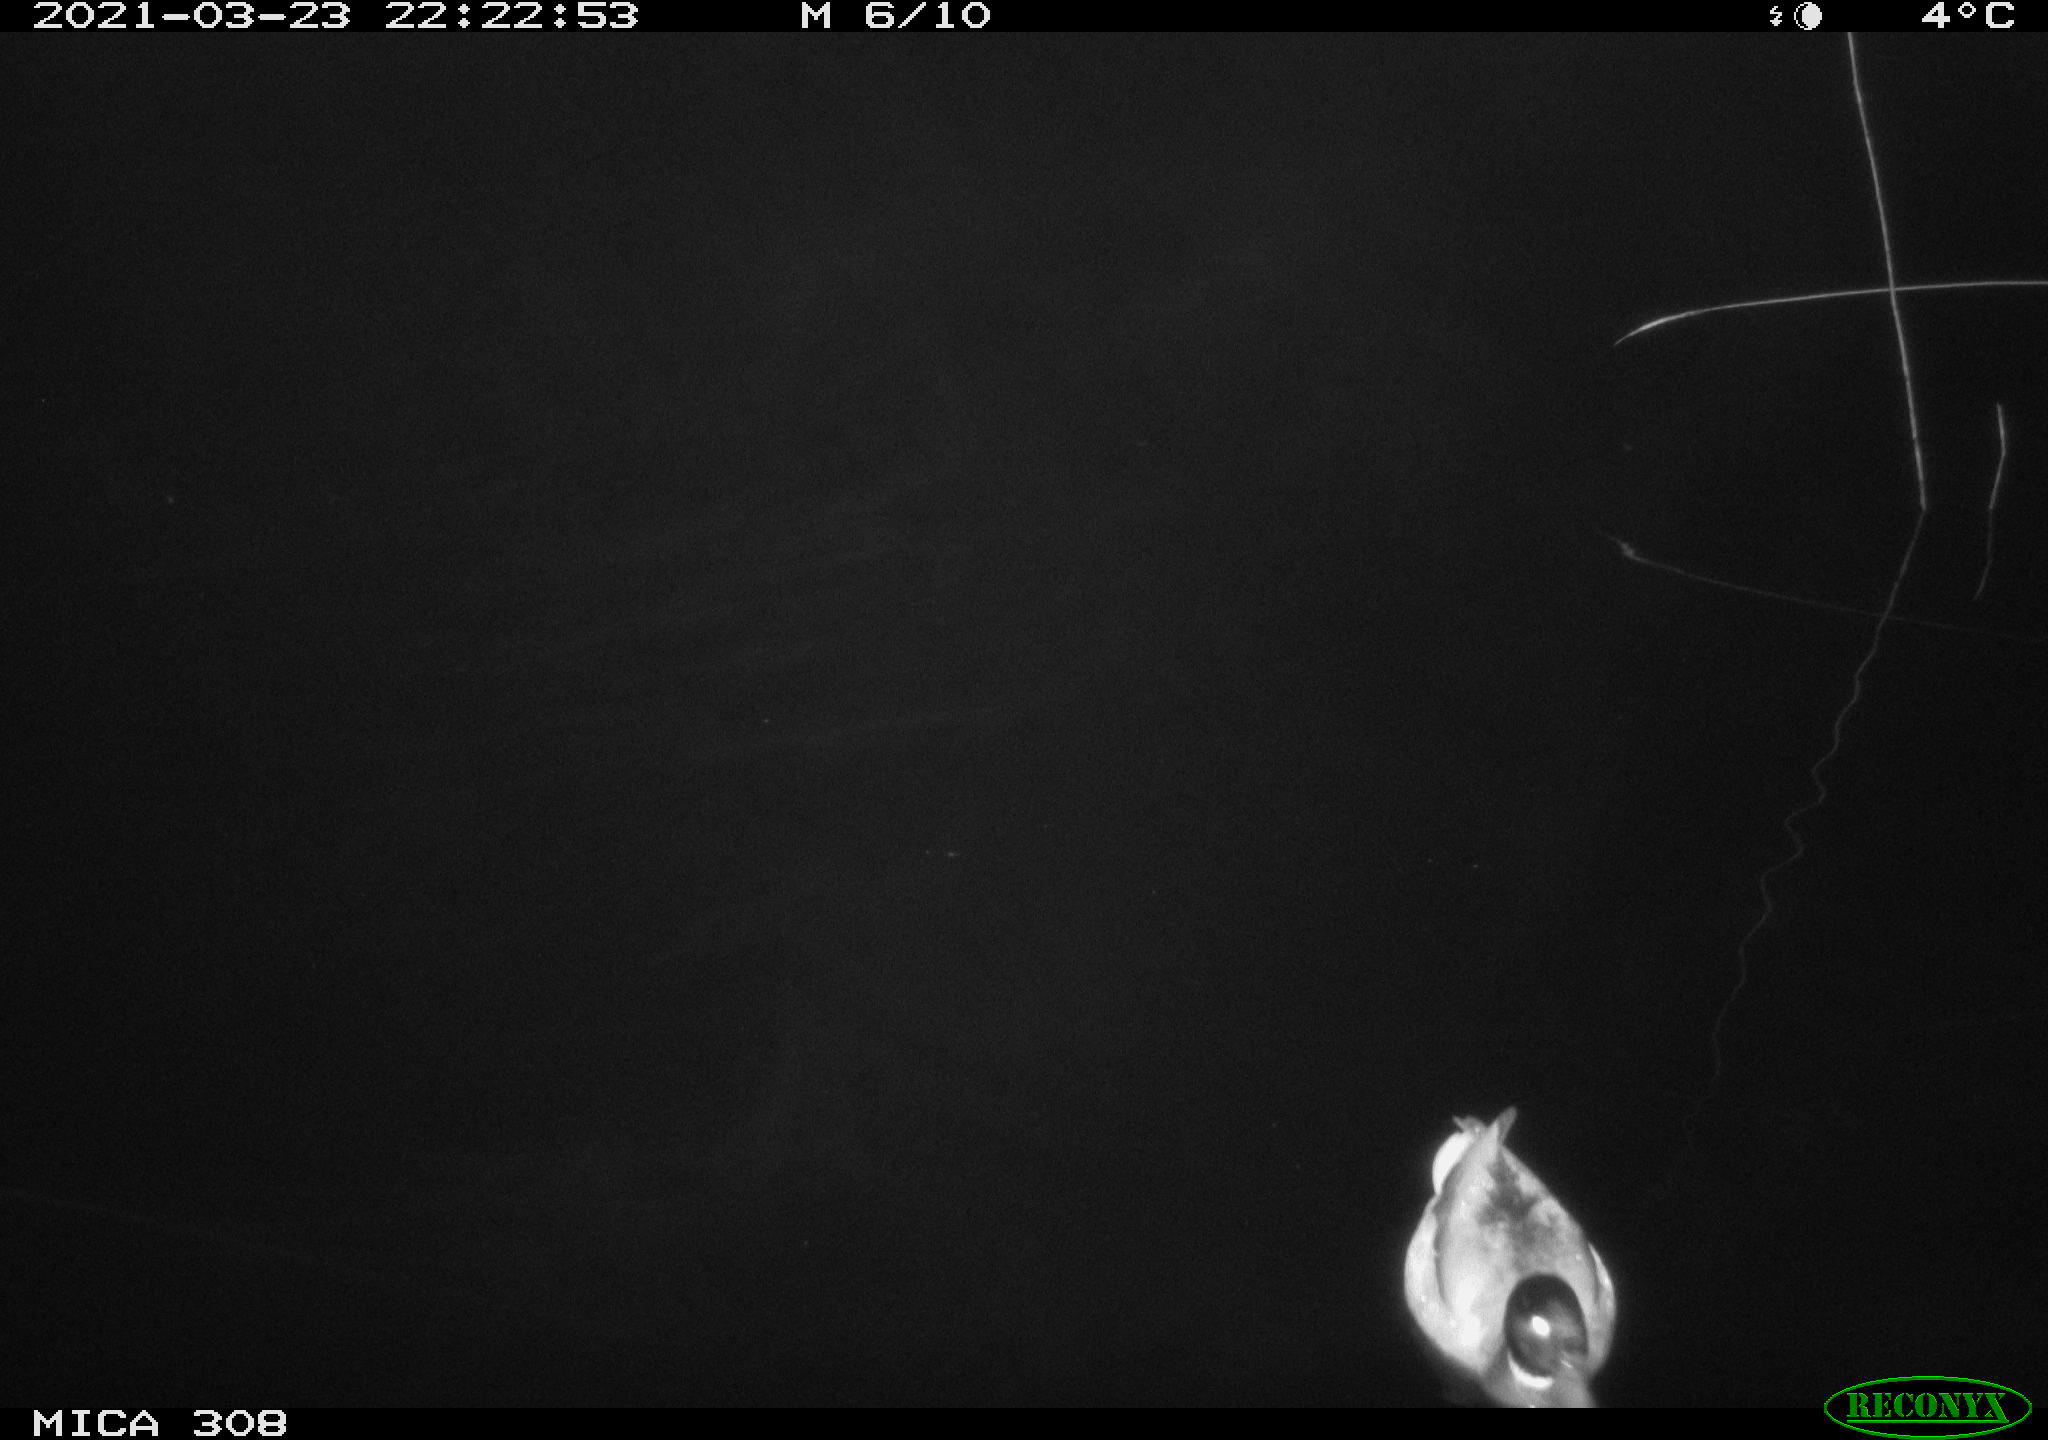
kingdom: Animalia
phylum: Chordata
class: Aves
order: Anseriformes
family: Anatidae
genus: Anas
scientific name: Anas platyrhynchos
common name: Mallard
